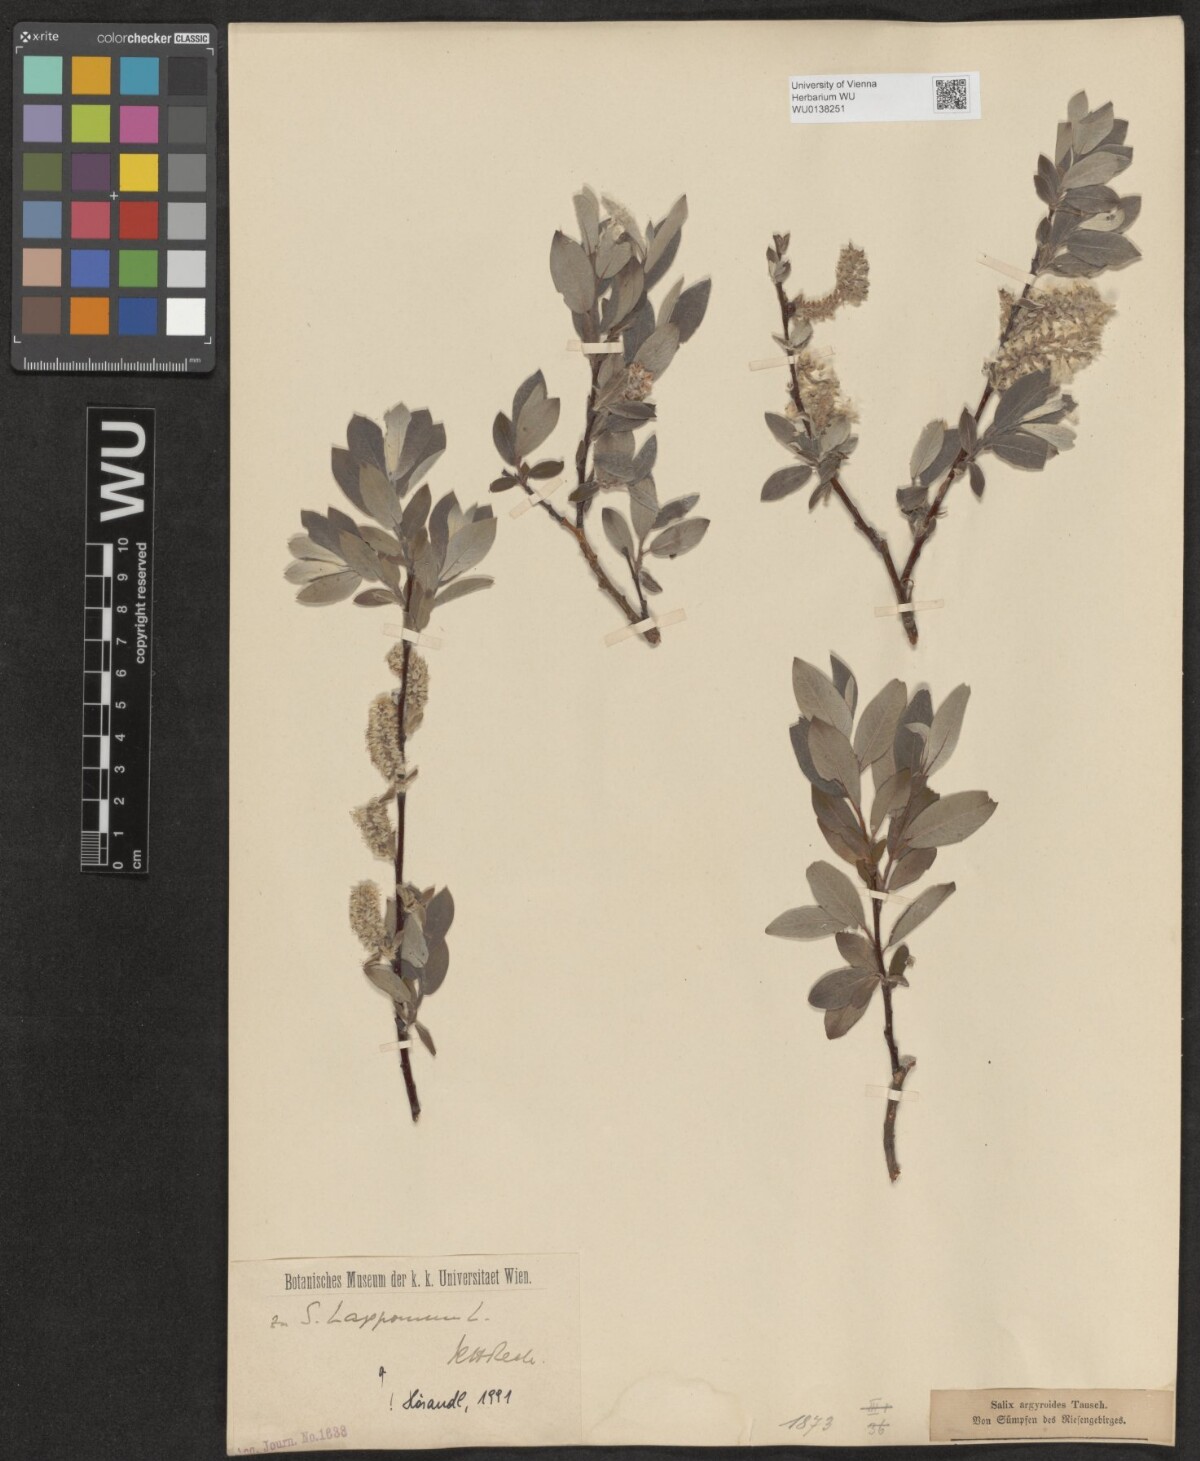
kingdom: Plantae
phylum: Tracheophyta
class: Magnoliopsida
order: Malpighiales
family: Salicaceae
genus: Salix
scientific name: Salix lapponum
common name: Downy willow
